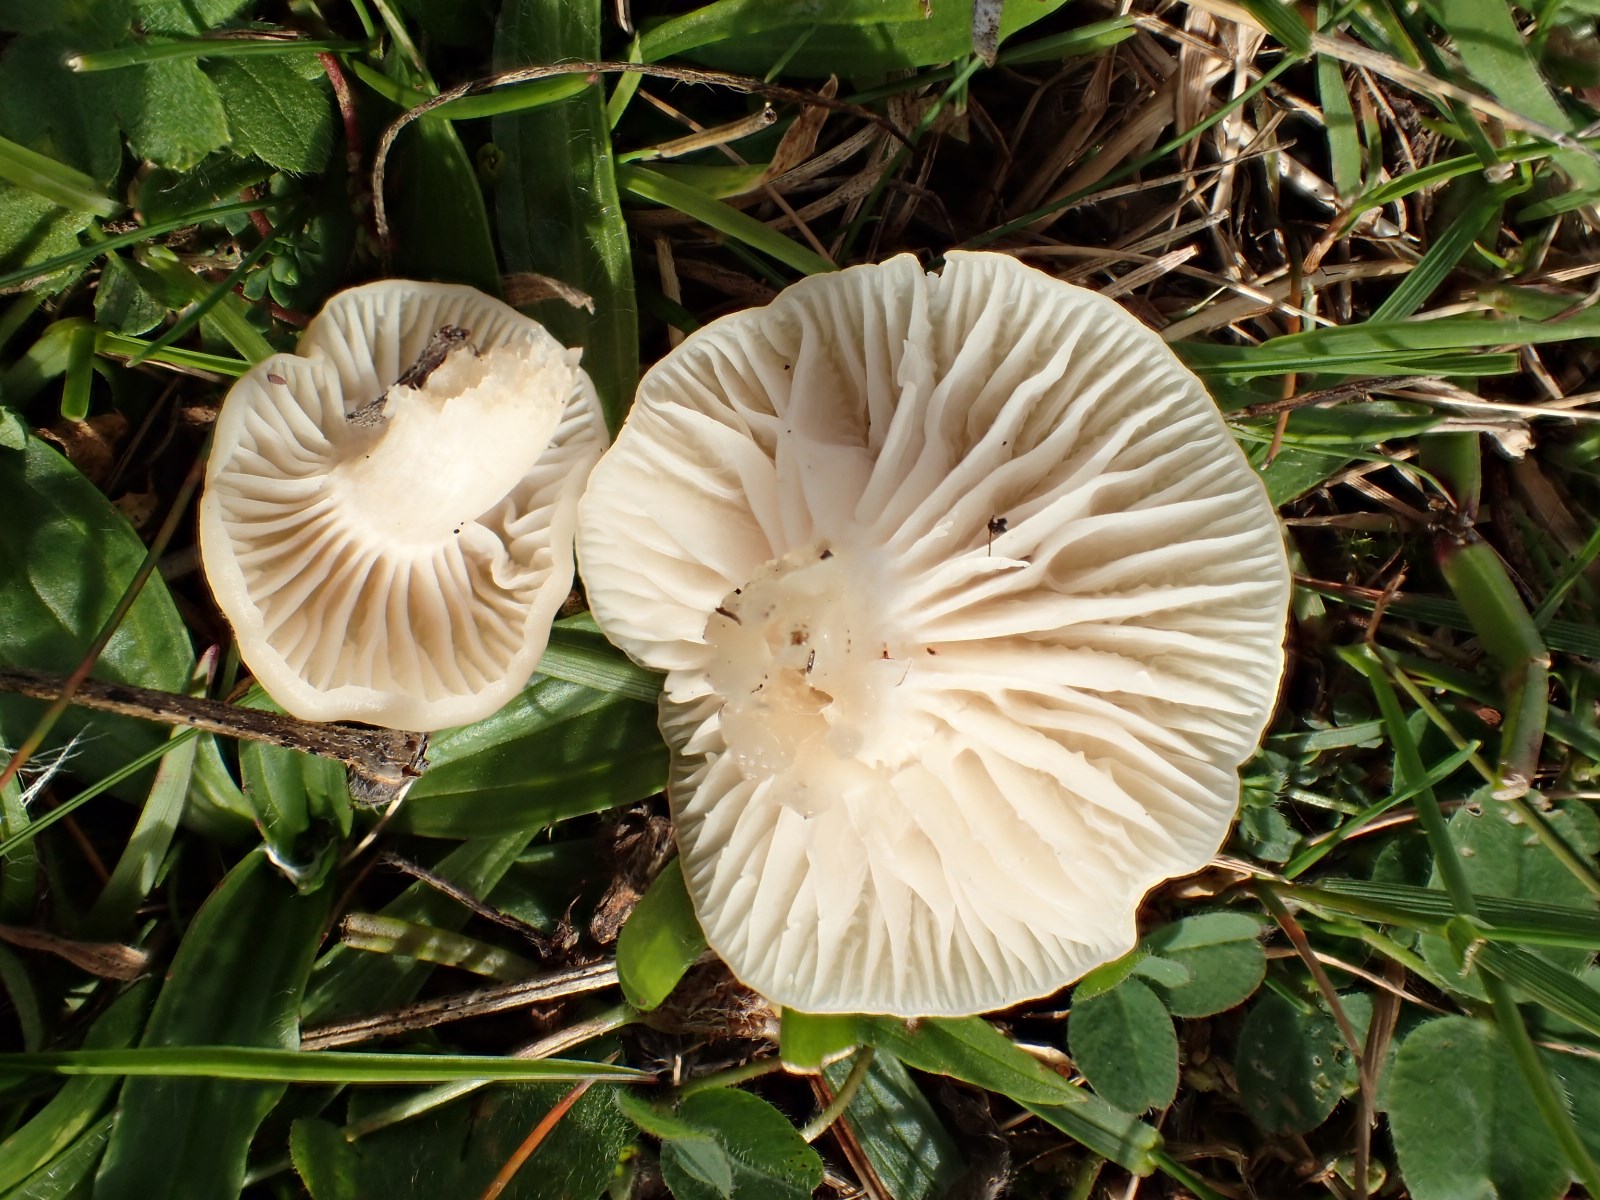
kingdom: Fungi
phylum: Basidiomycota
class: Agaricomycetes
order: Agaricales
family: Hygrophoraceae
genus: Cuphophyllus
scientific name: Cuphophyllus virgineus
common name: snehvid vokshat
